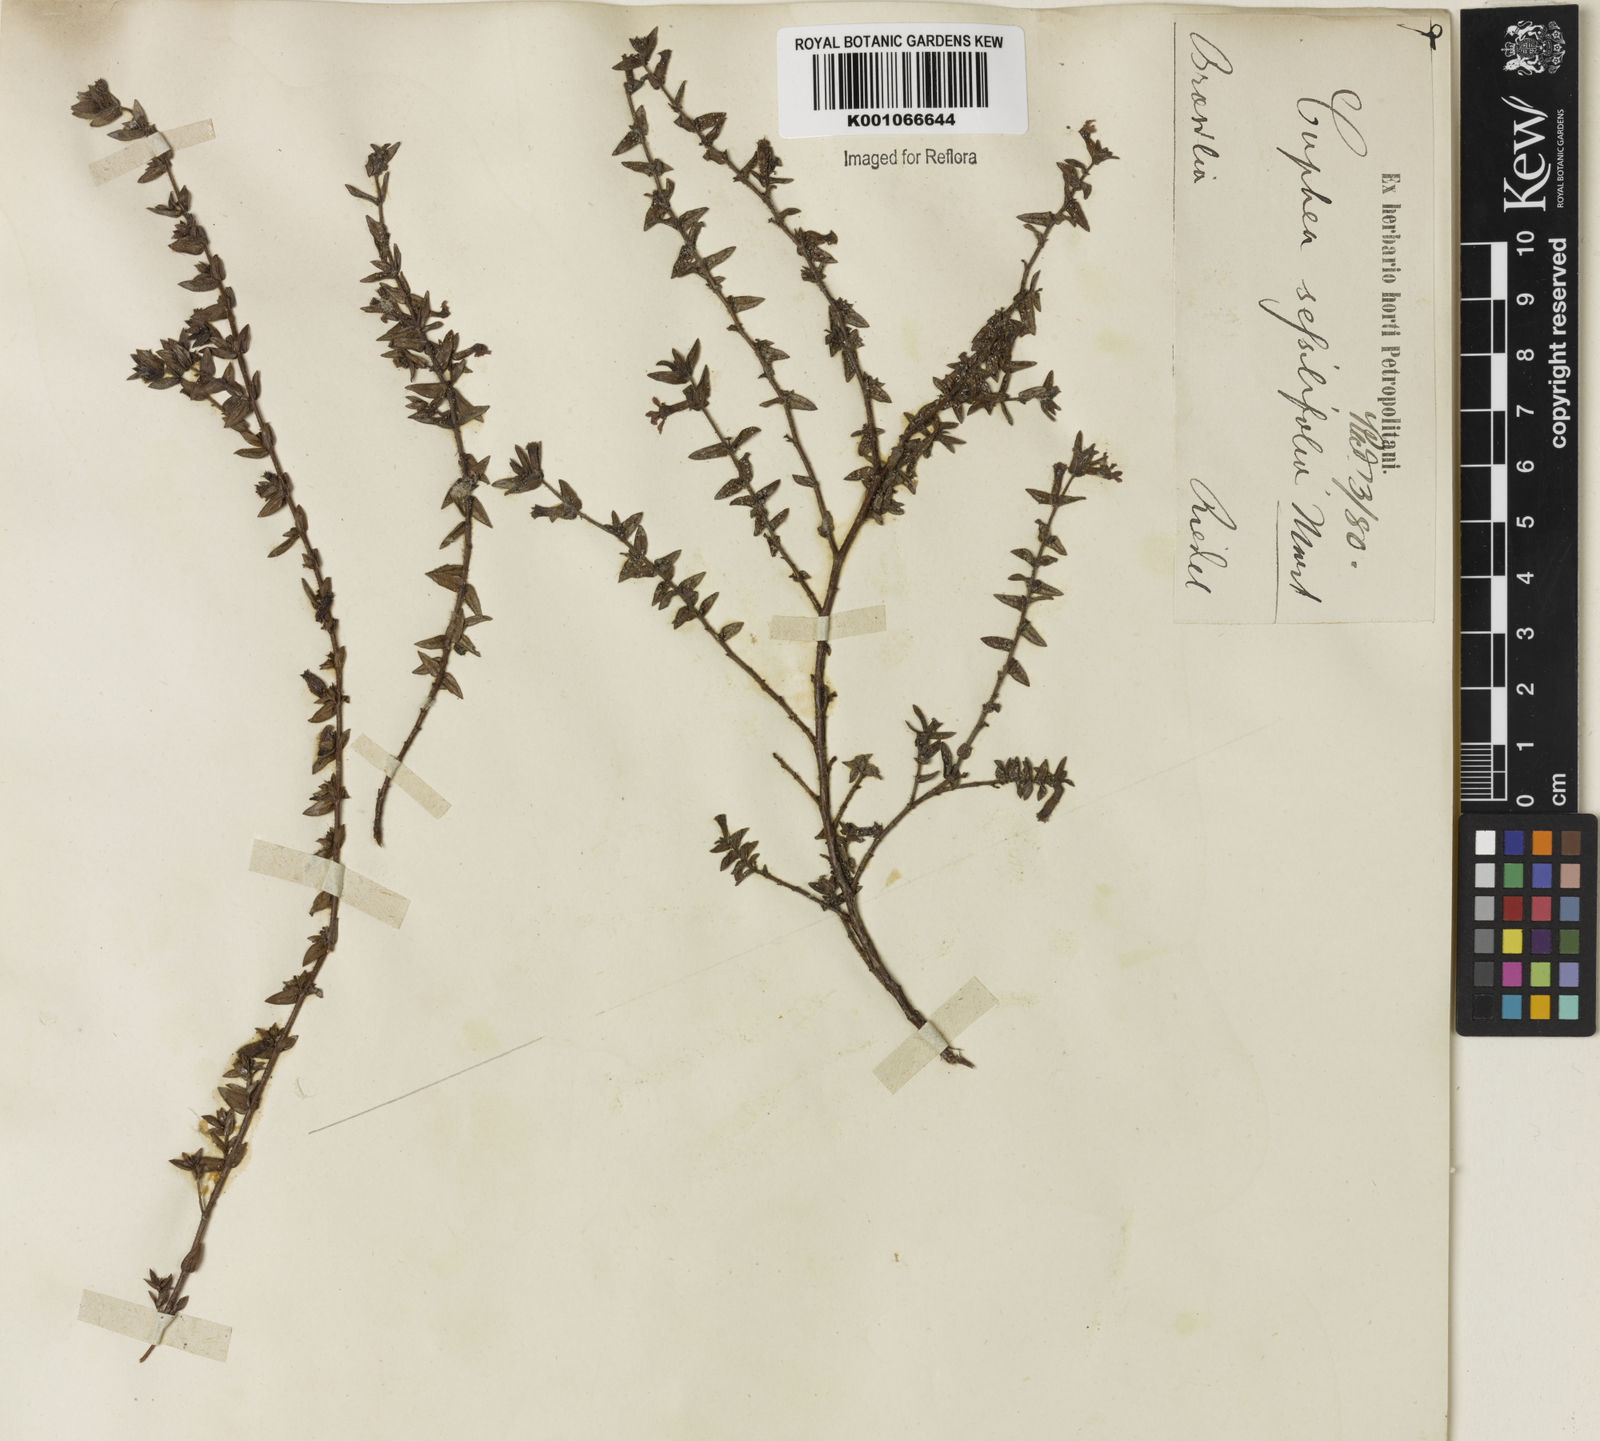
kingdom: Plantae
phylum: Tracheophyta
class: Magnoliopsida
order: Myrtales
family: Lythraceae
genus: Cuphea
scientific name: Cuphea
